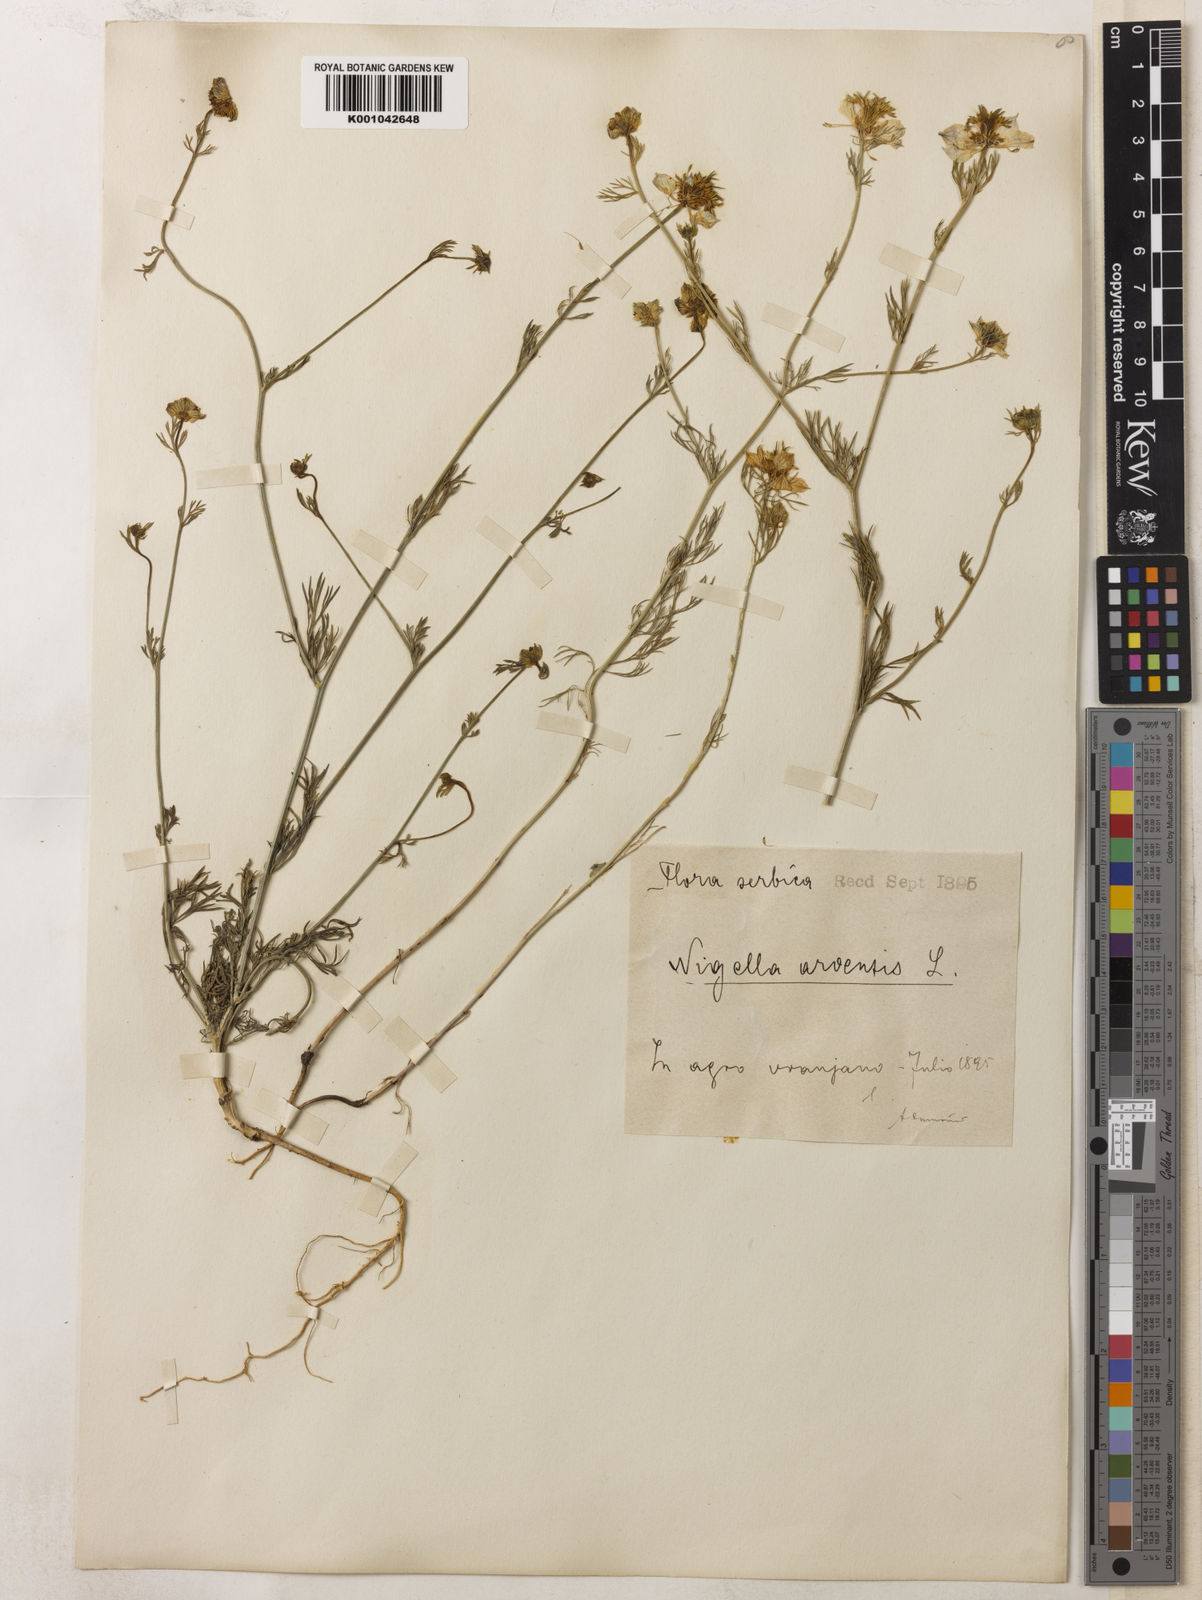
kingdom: Plantae
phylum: Tracheophyta
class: Magnoliopsida
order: Ranunculales
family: Ranunculaceae
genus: Nigella
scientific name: Nigella arvensis
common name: Wild fennel-flower
